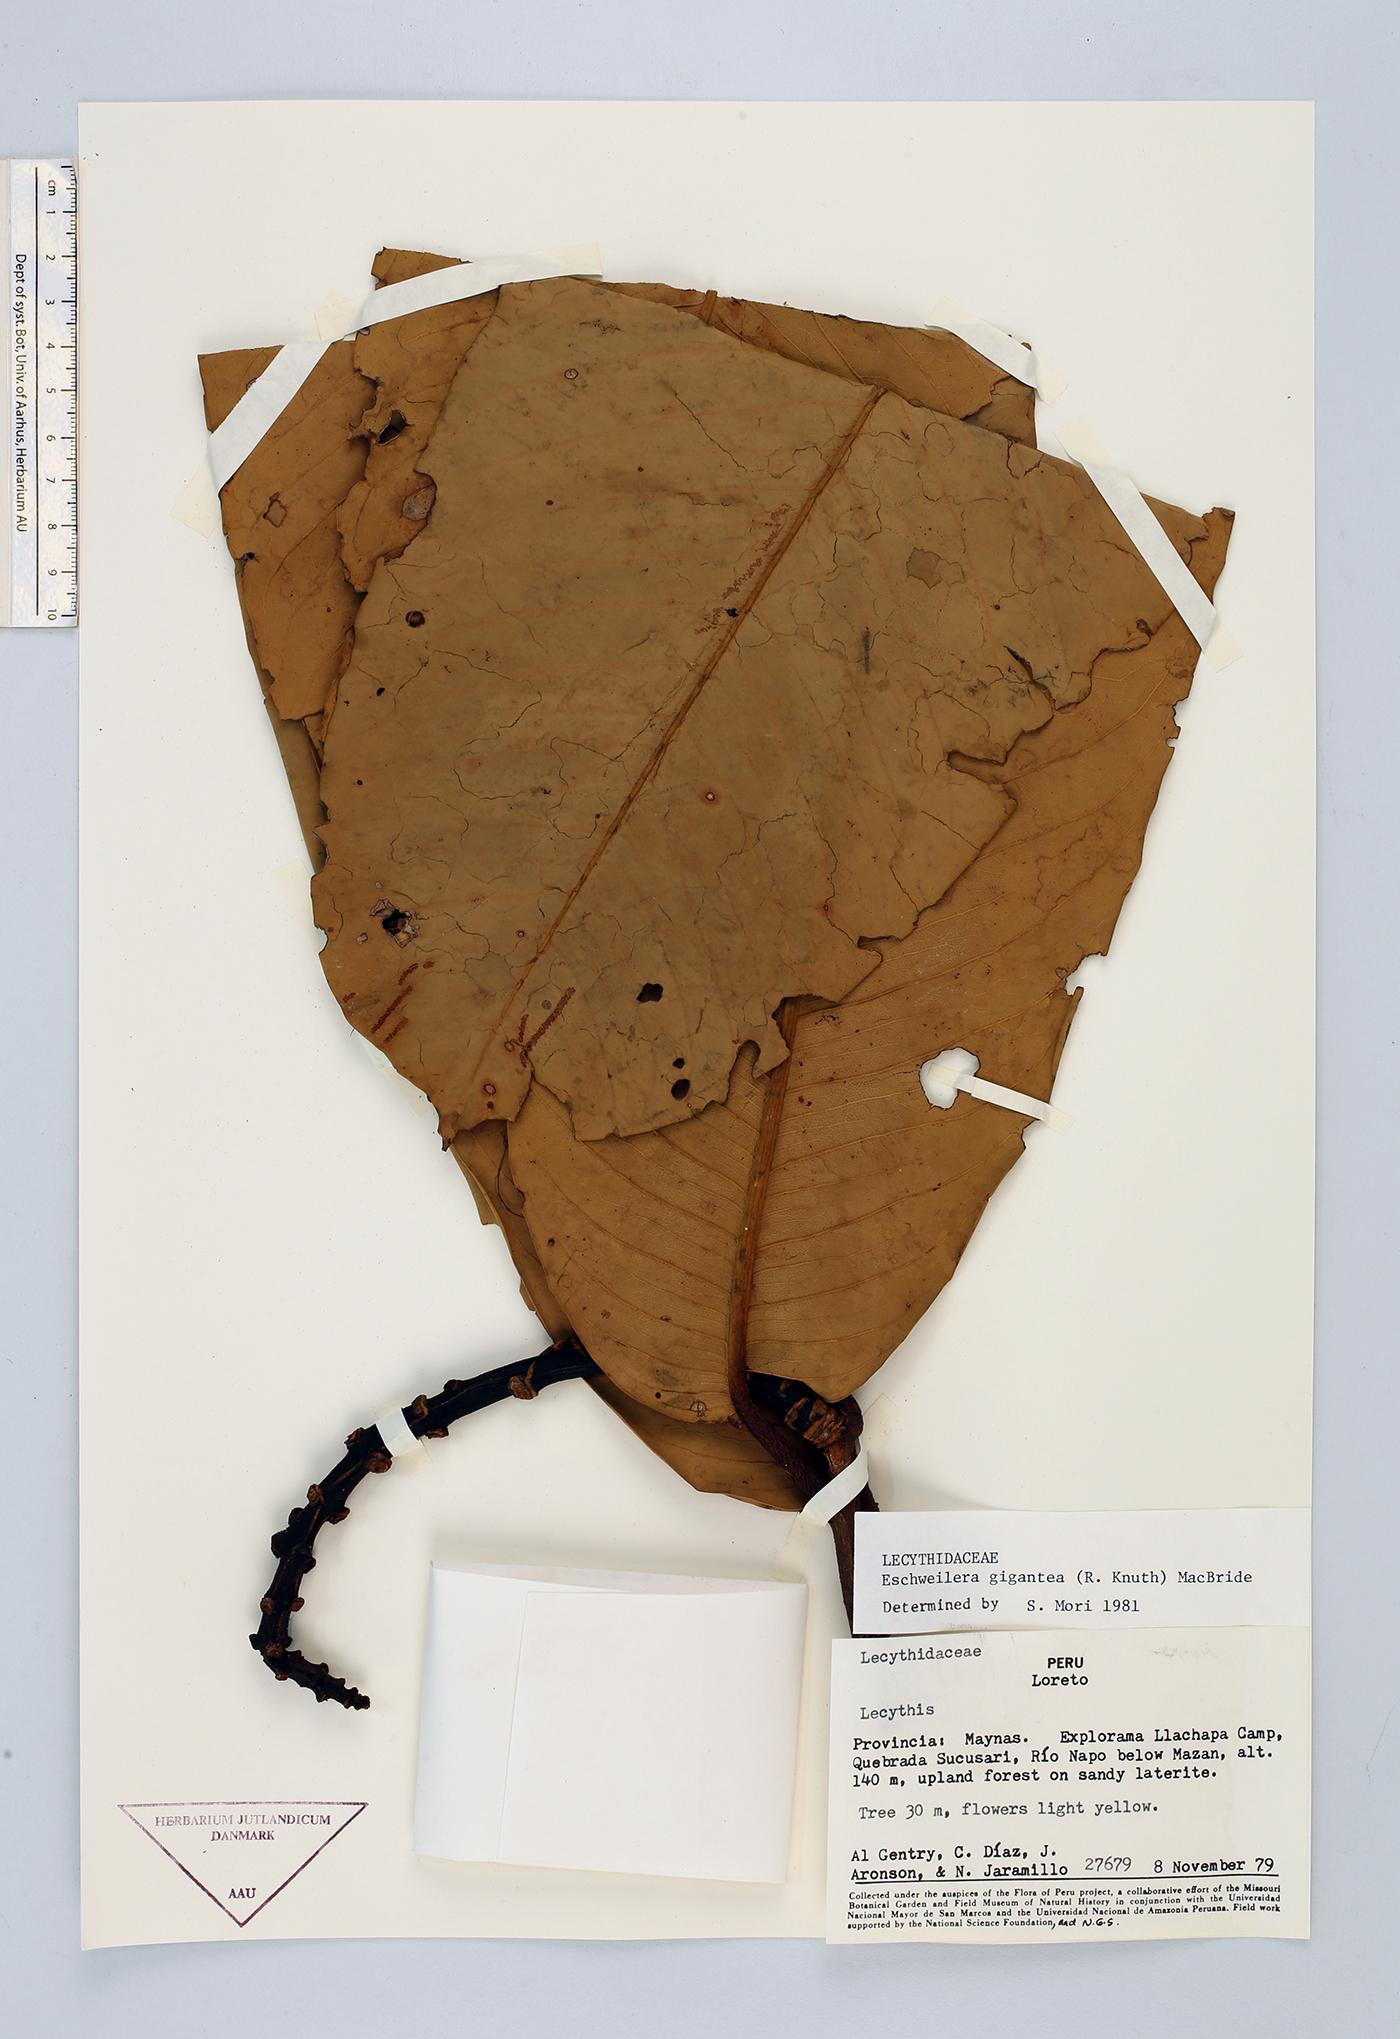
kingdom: Plantae
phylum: Tracheophyta
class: Magnoliopsida
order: Ericales
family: Lecythidaceae
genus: Eschweilera
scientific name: Eschweilera gigantea
